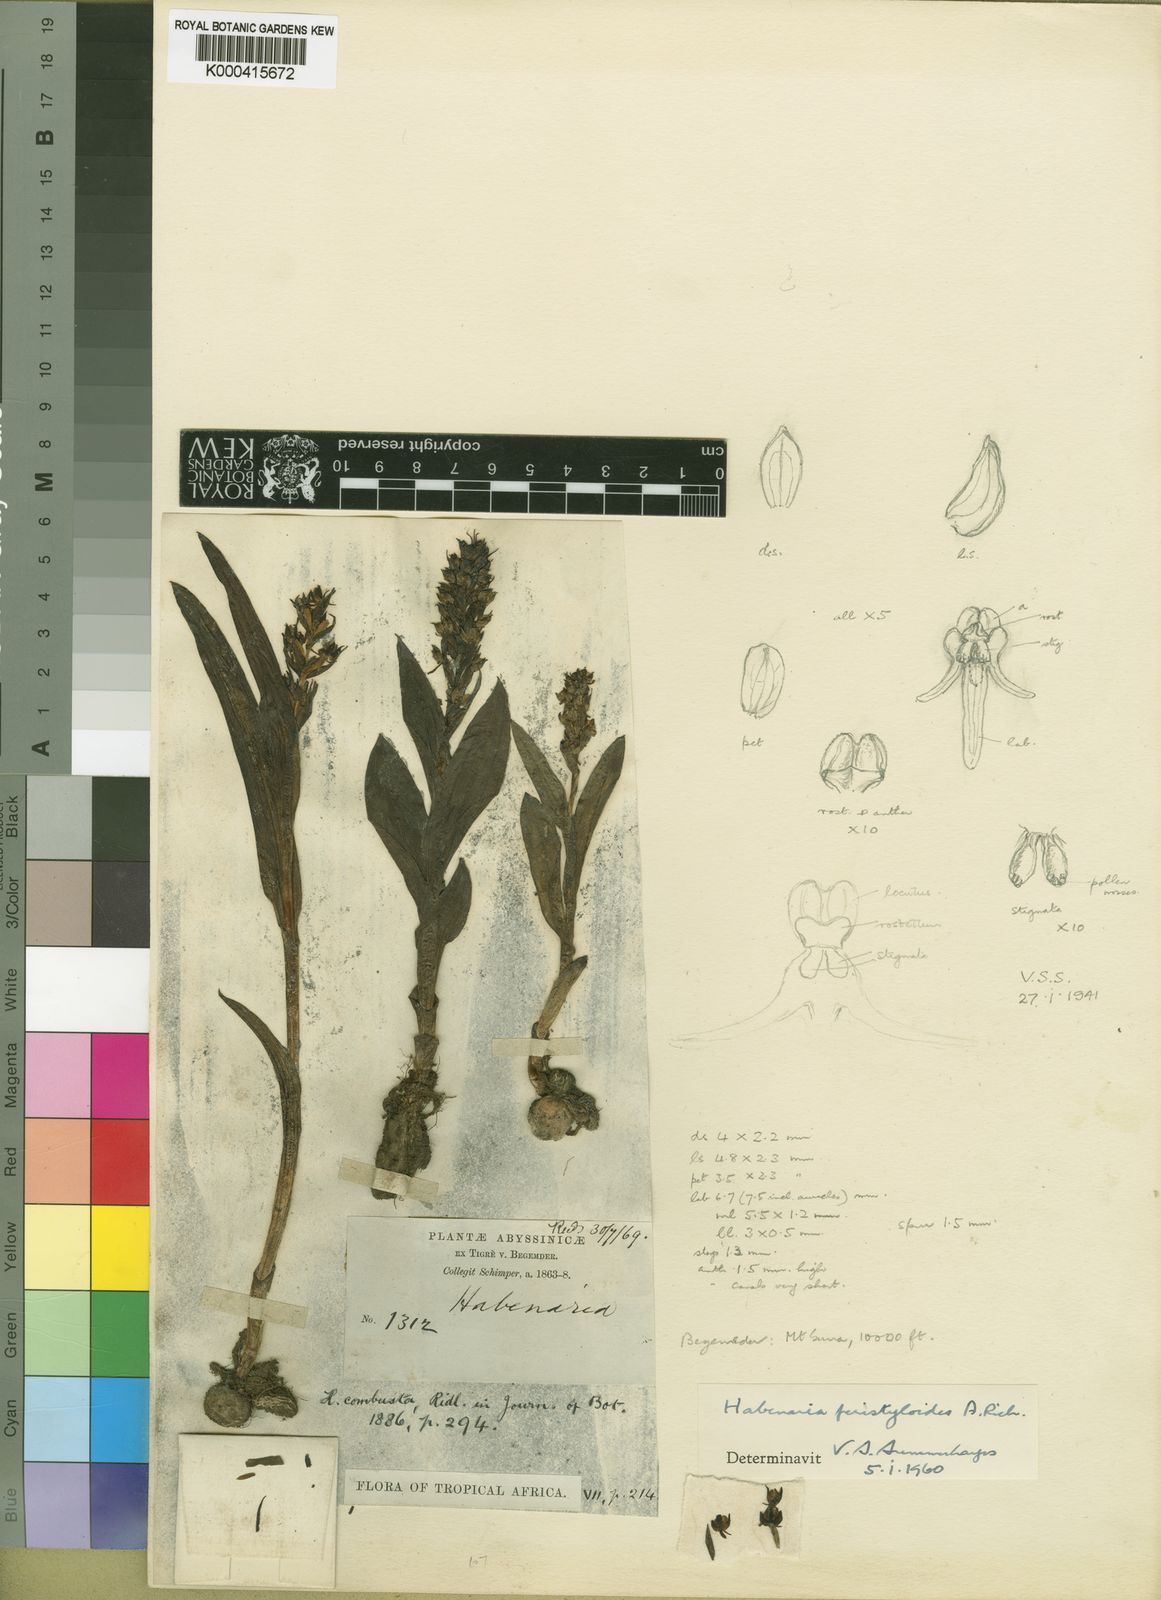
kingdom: Plantae
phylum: Tracheophyta
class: Liliopsida
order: Asparagales
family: Orchidaceae
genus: Habenaria
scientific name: Habenaria peristyloides
